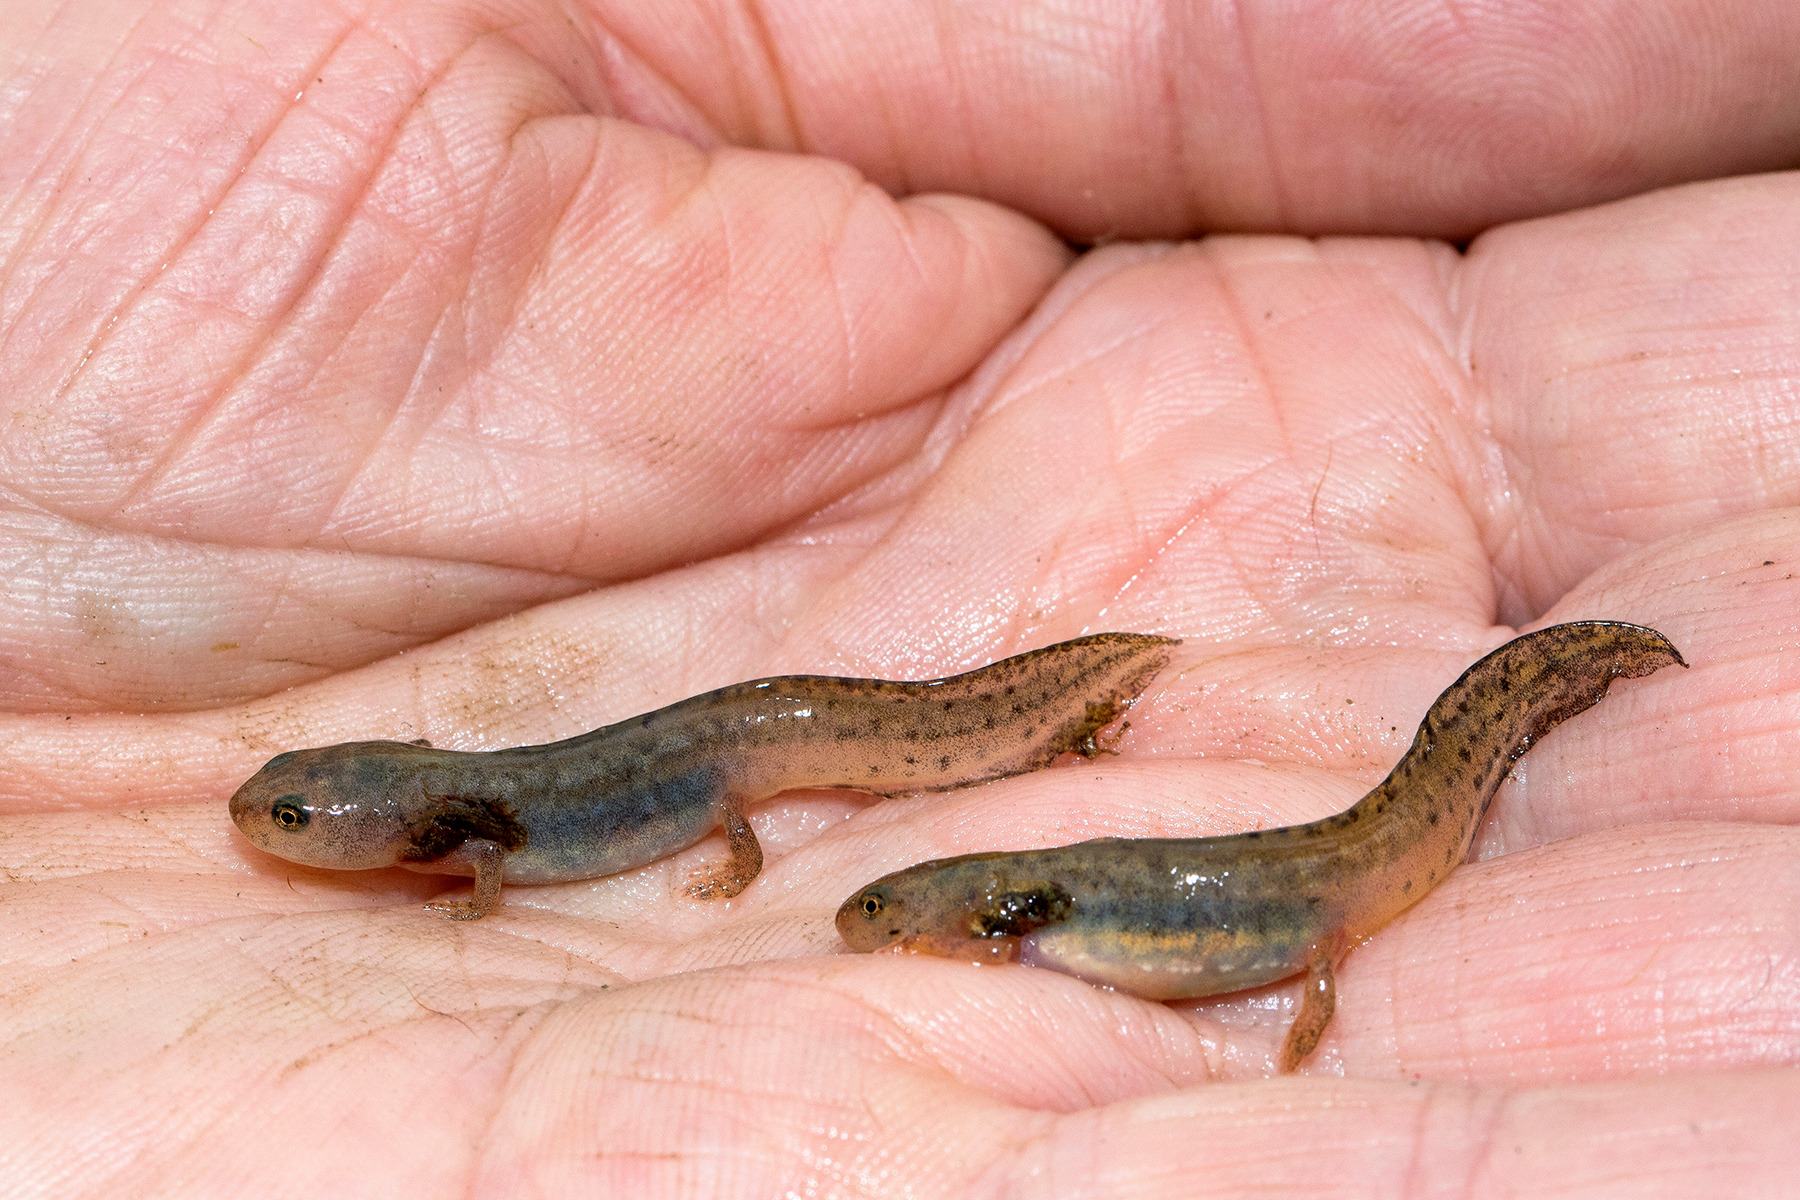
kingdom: Animalia
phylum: Chordata
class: Amphibia
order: Caudata
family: Salamandridae
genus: Ichthyosaura
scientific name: Ichthyosaura alpestris
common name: Bjergsalamander
